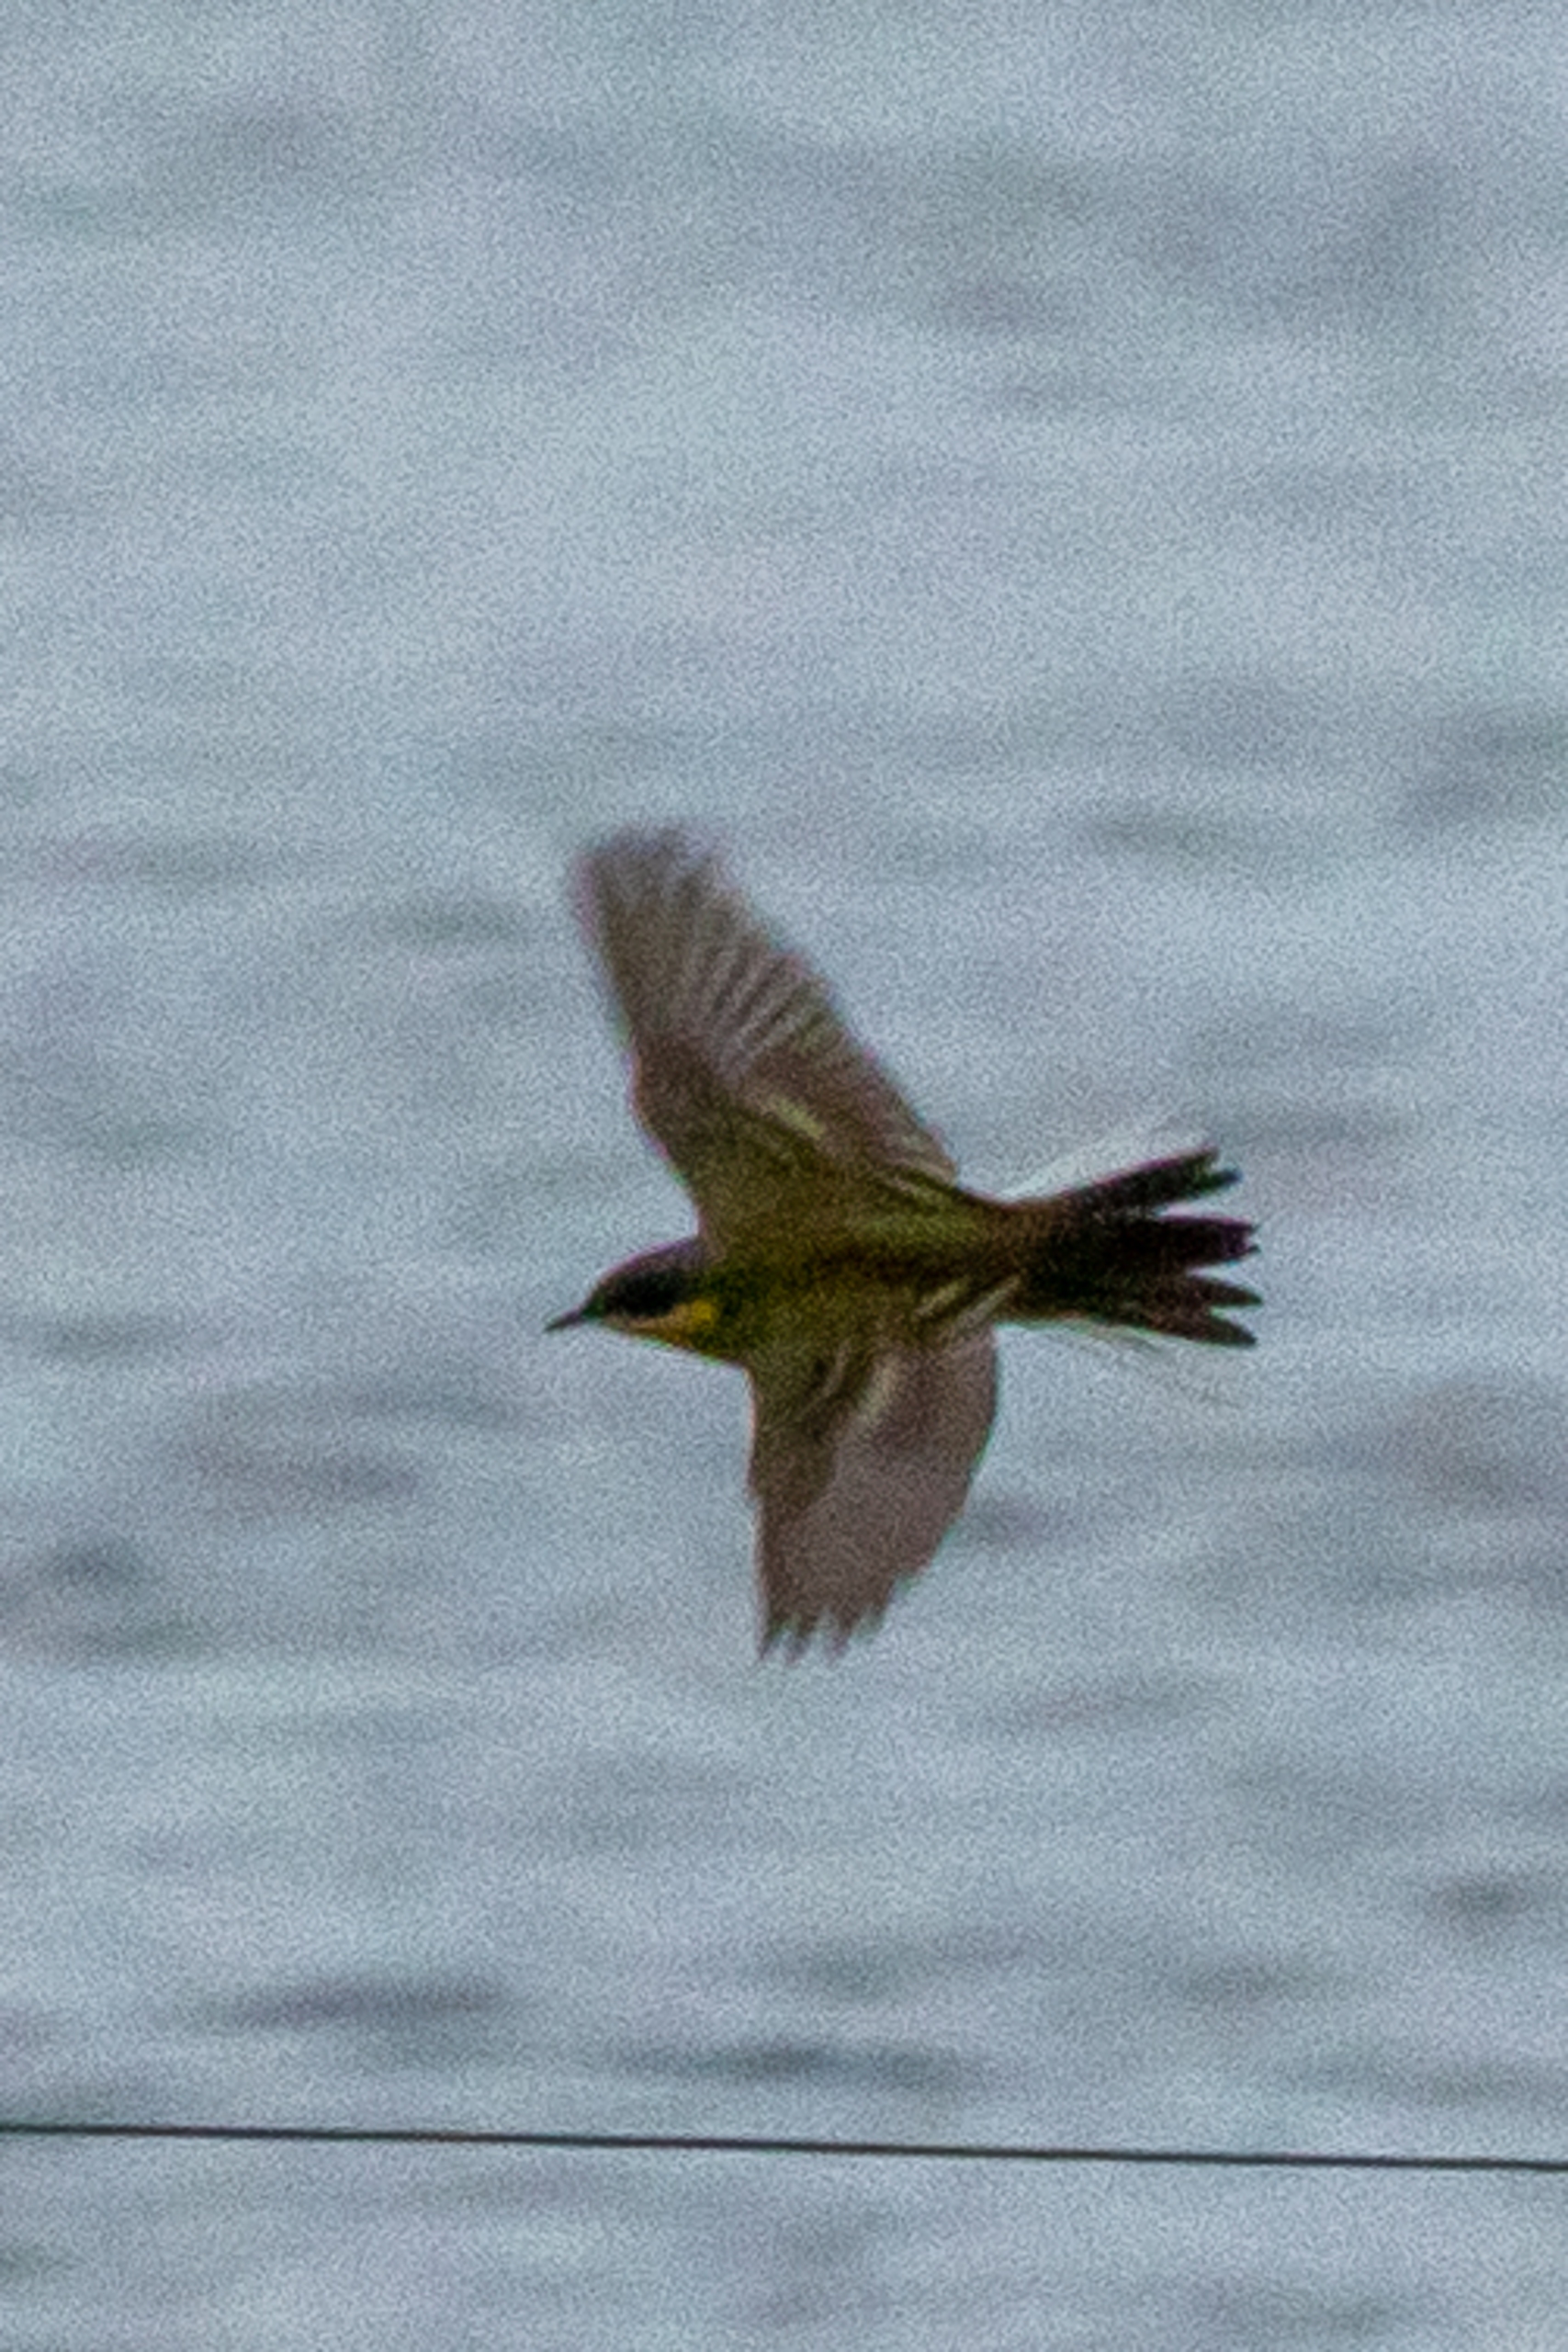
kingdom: Animalia
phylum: Chordata
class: Aves
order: Passeriformes
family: Motacillidae
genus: Motacilla
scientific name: Motacilla flava
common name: Nordlig vipstjert
